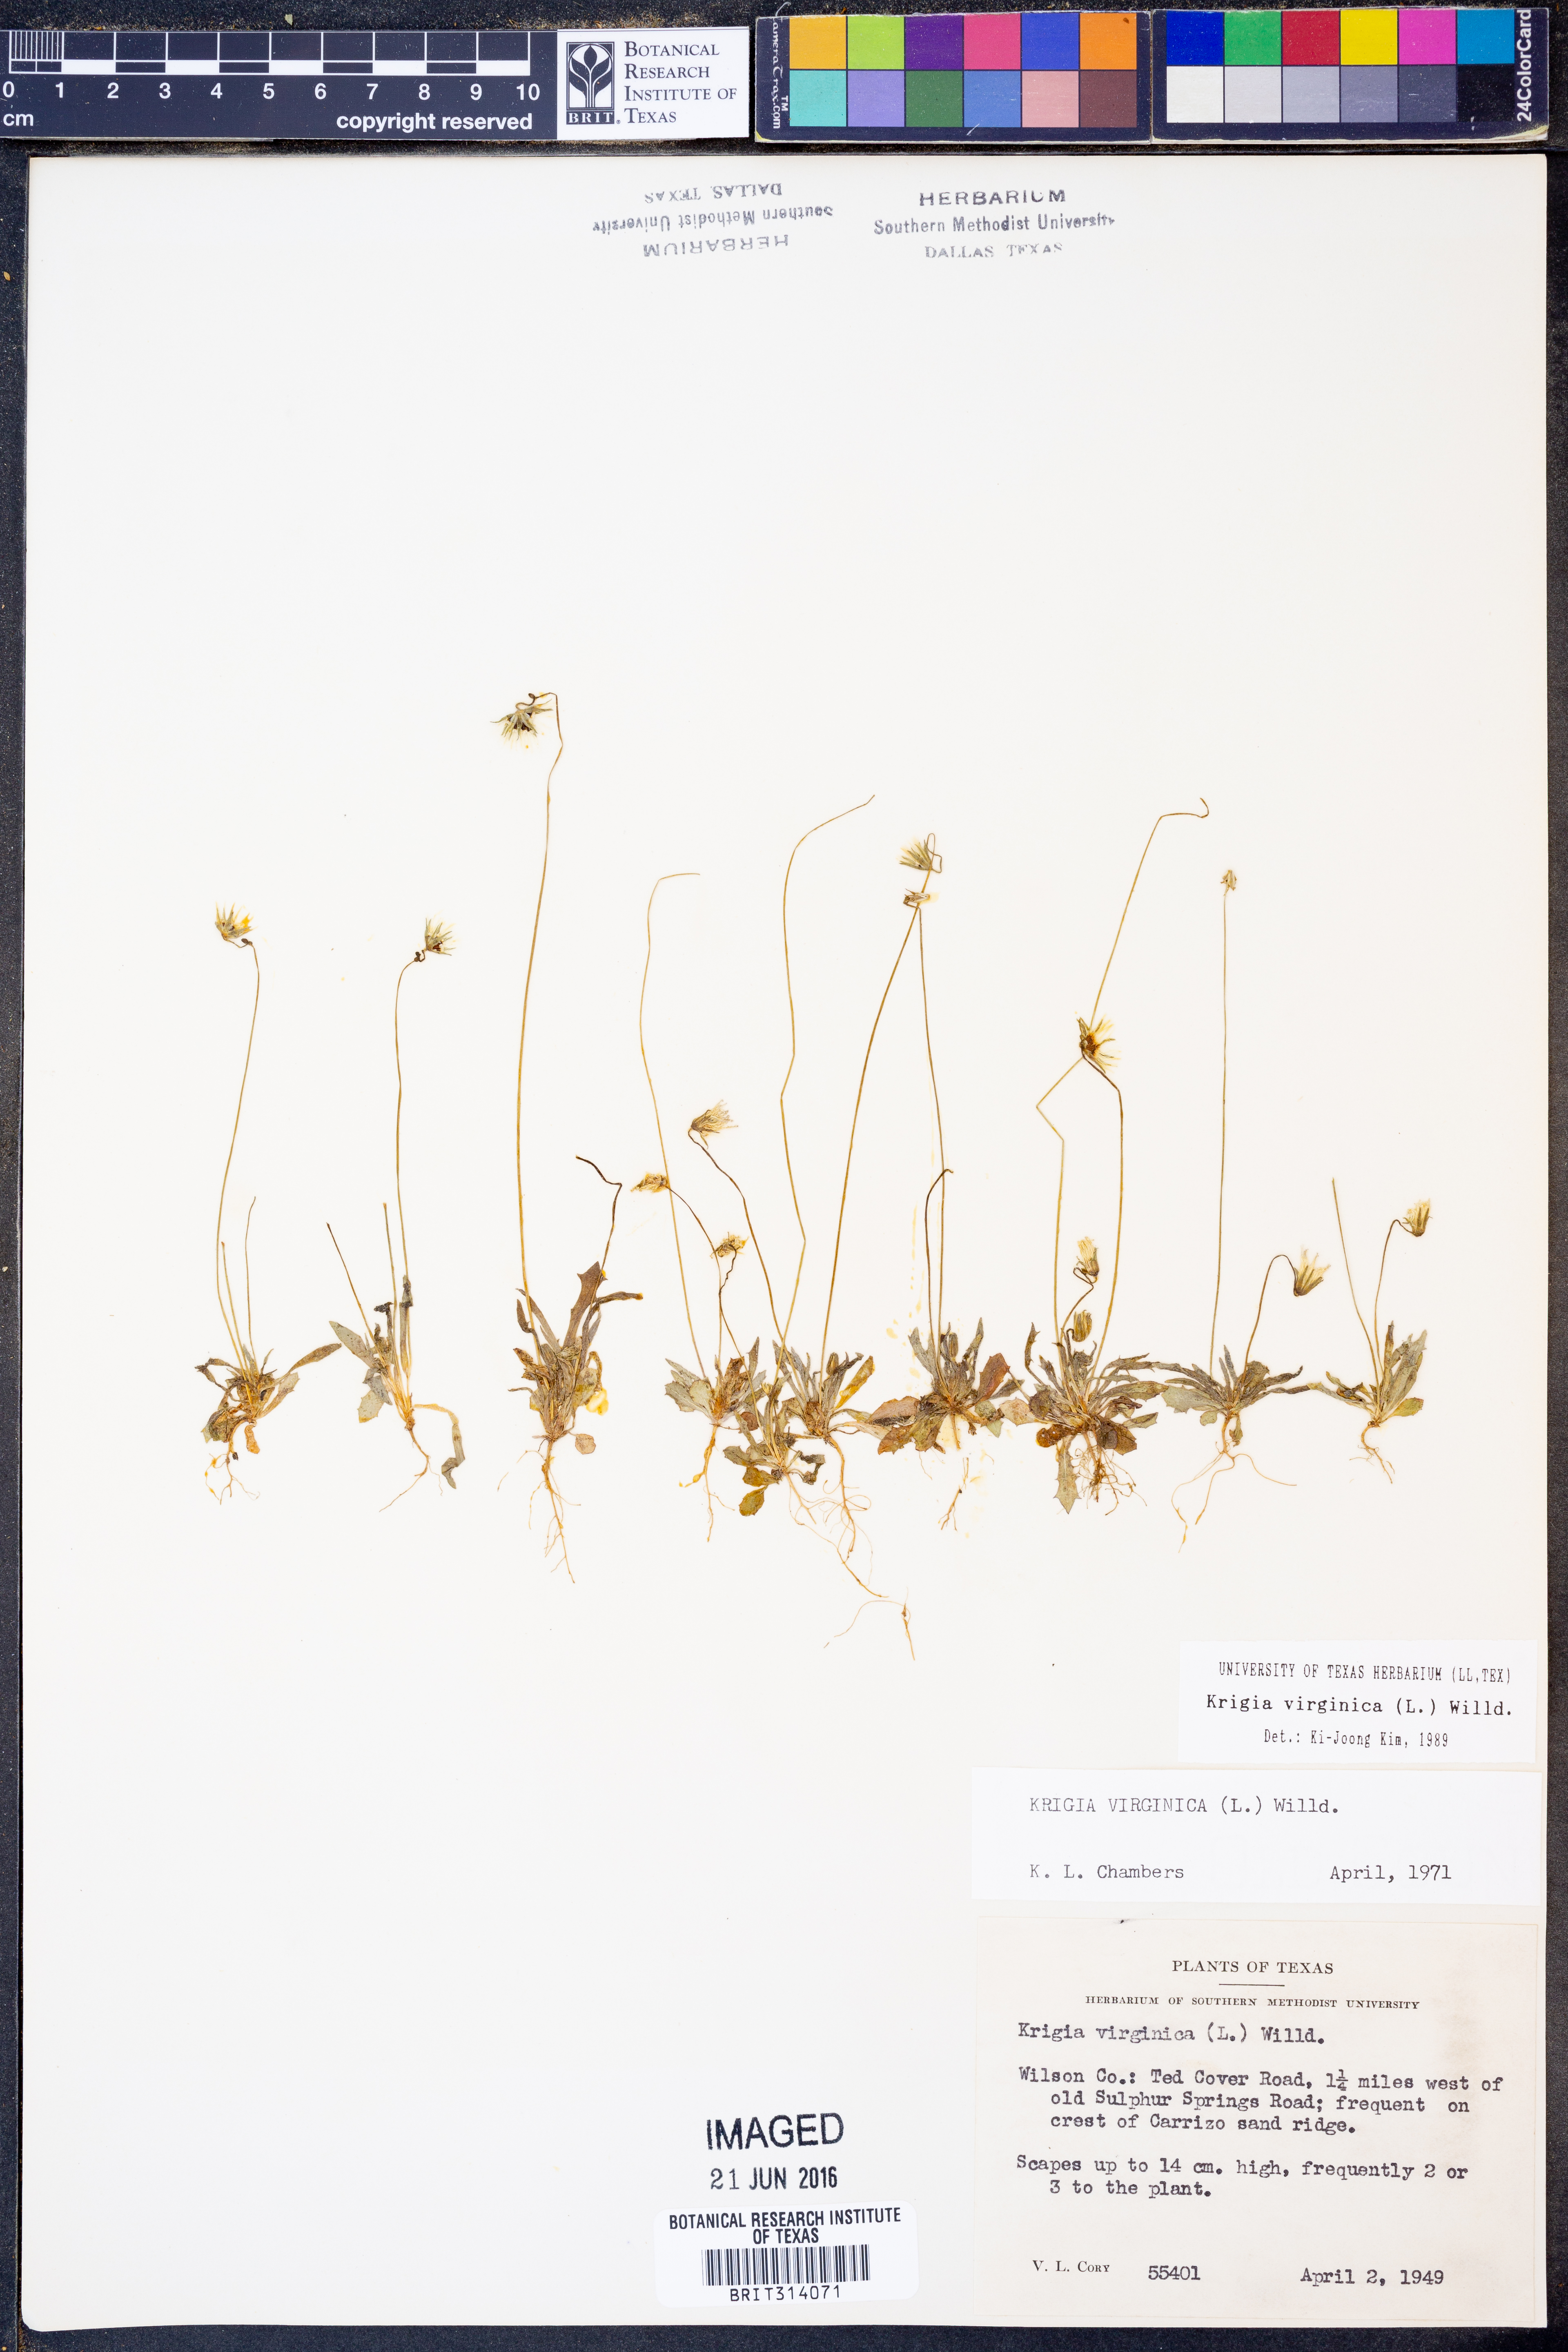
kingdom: Plantae
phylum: Tracheophyta
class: Magnoliopsida
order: Asterales
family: Asteraceae
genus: Krigia
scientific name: Krigia virginica
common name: Virginia dwarf-dandelion
